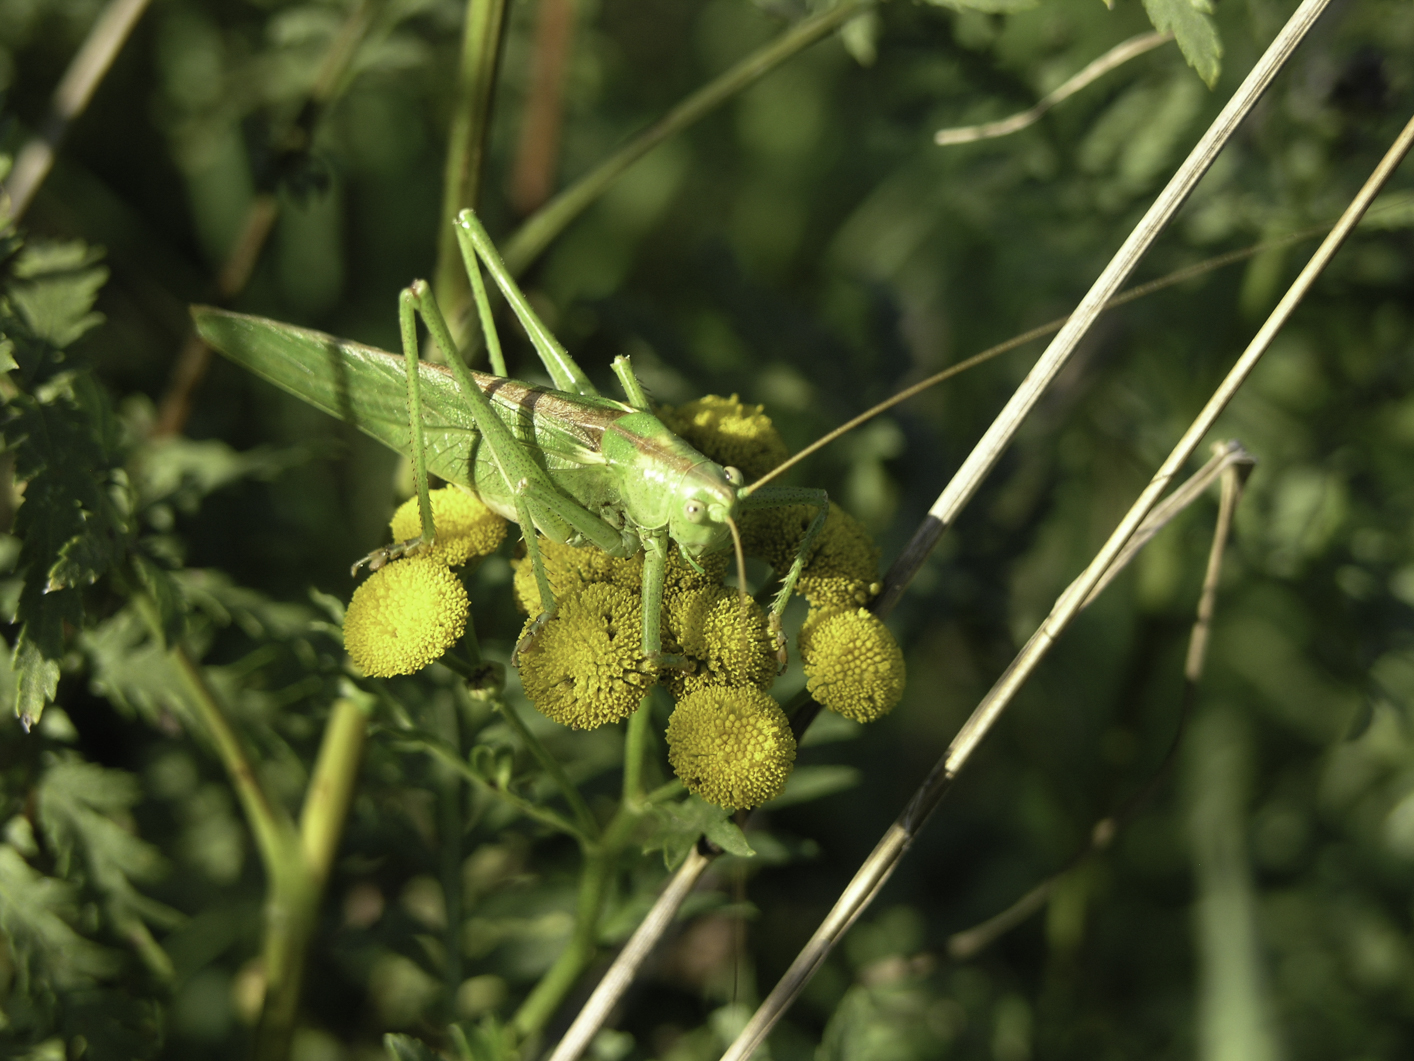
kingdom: Animalia
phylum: Arthropoda
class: Insecta
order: Orthoptera
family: Tettigoniidae
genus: Tettigonia
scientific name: Tettigonia viridissima
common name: Great green bush-cricket
